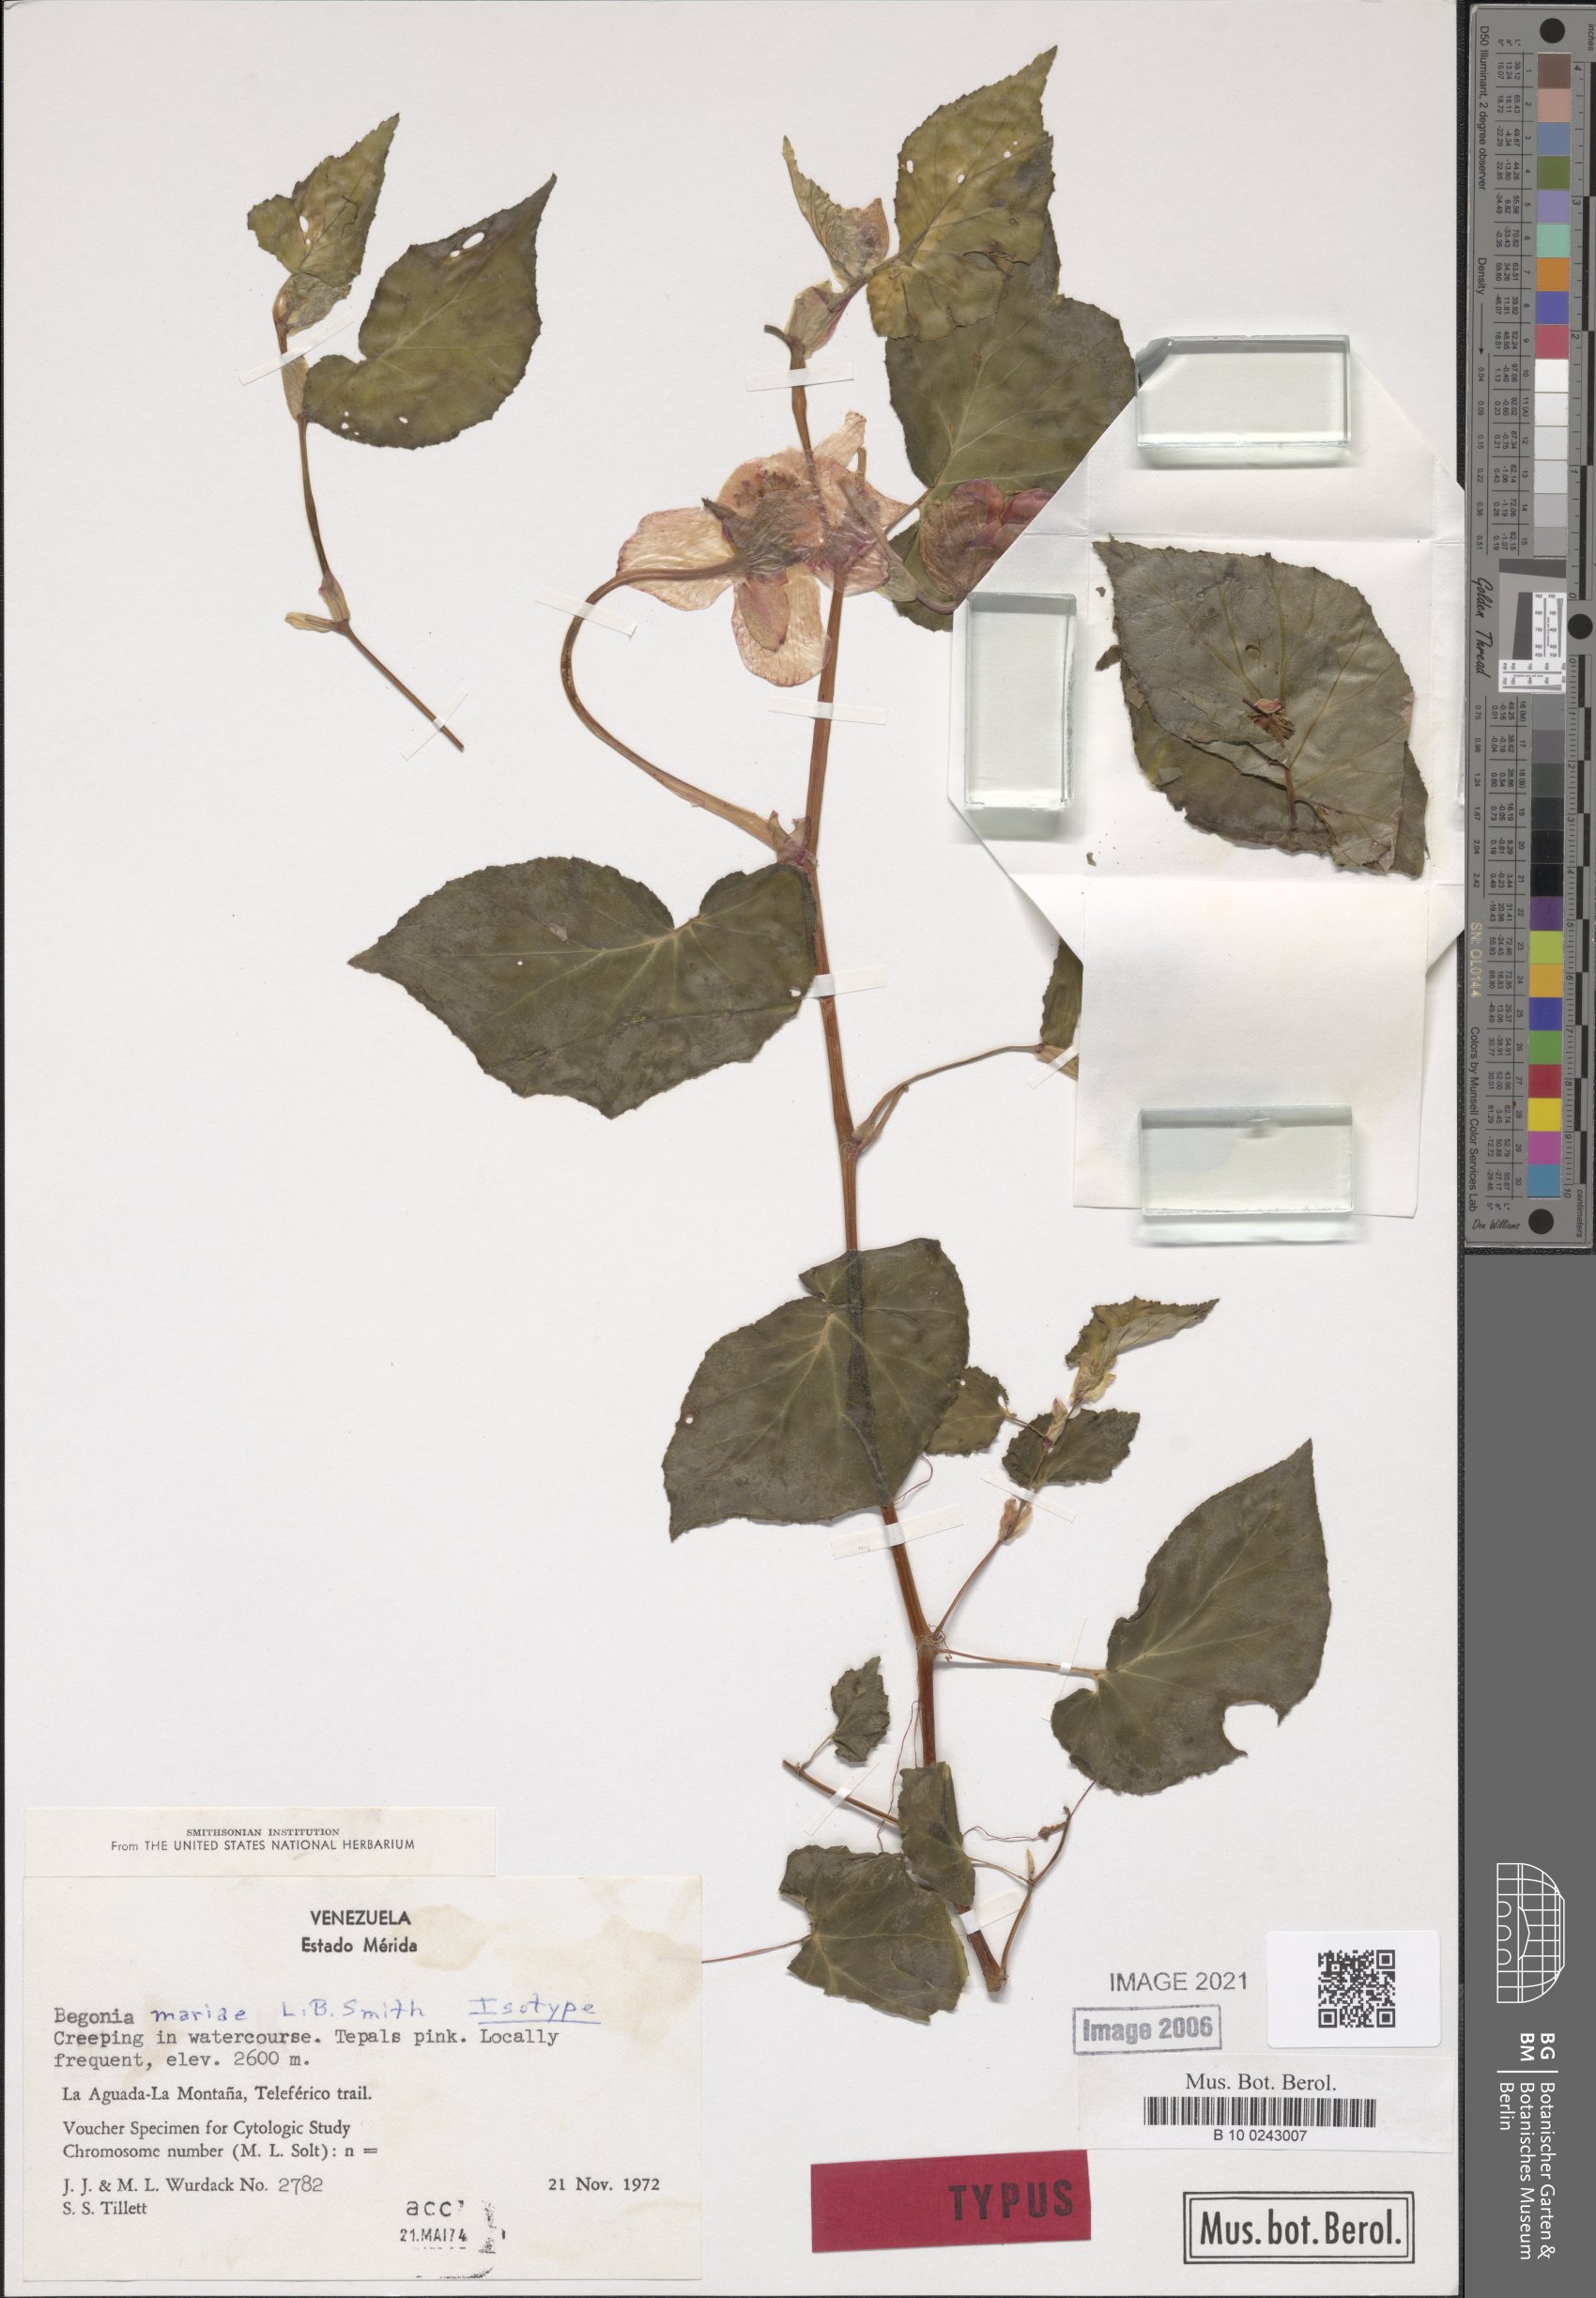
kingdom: Plantae
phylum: Tracheophyta
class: Magnoliopsida
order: Cucurbitales
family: Begoniaceae
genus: Begonia
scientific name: Begonia mariae
